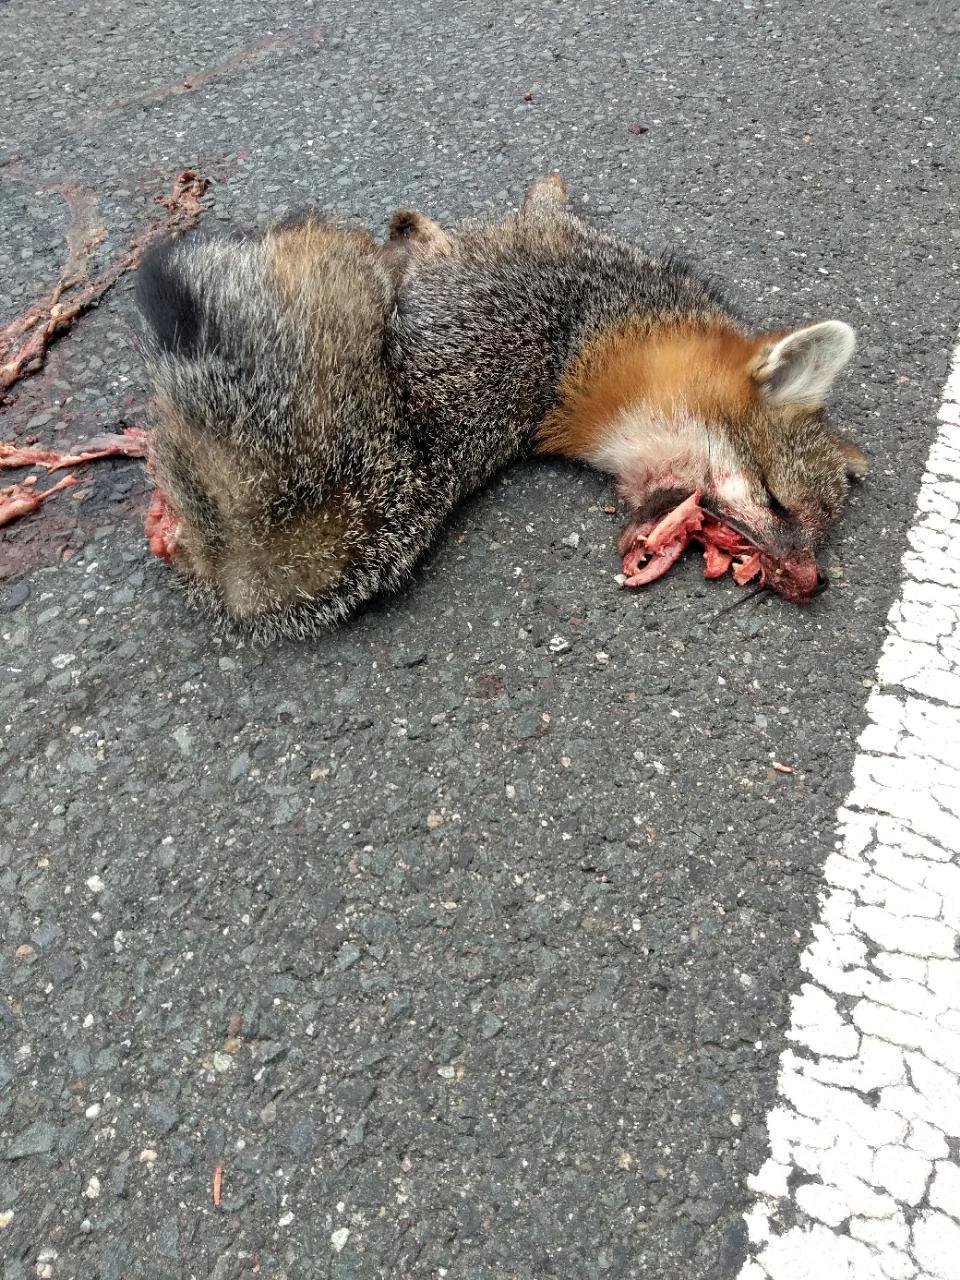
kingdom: Animalia
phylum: Chordata
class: Mammalia
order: Carnivora
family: Canidae
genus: Urocyon
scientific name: Urocyon cinereoargenteus
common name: Gray fox
